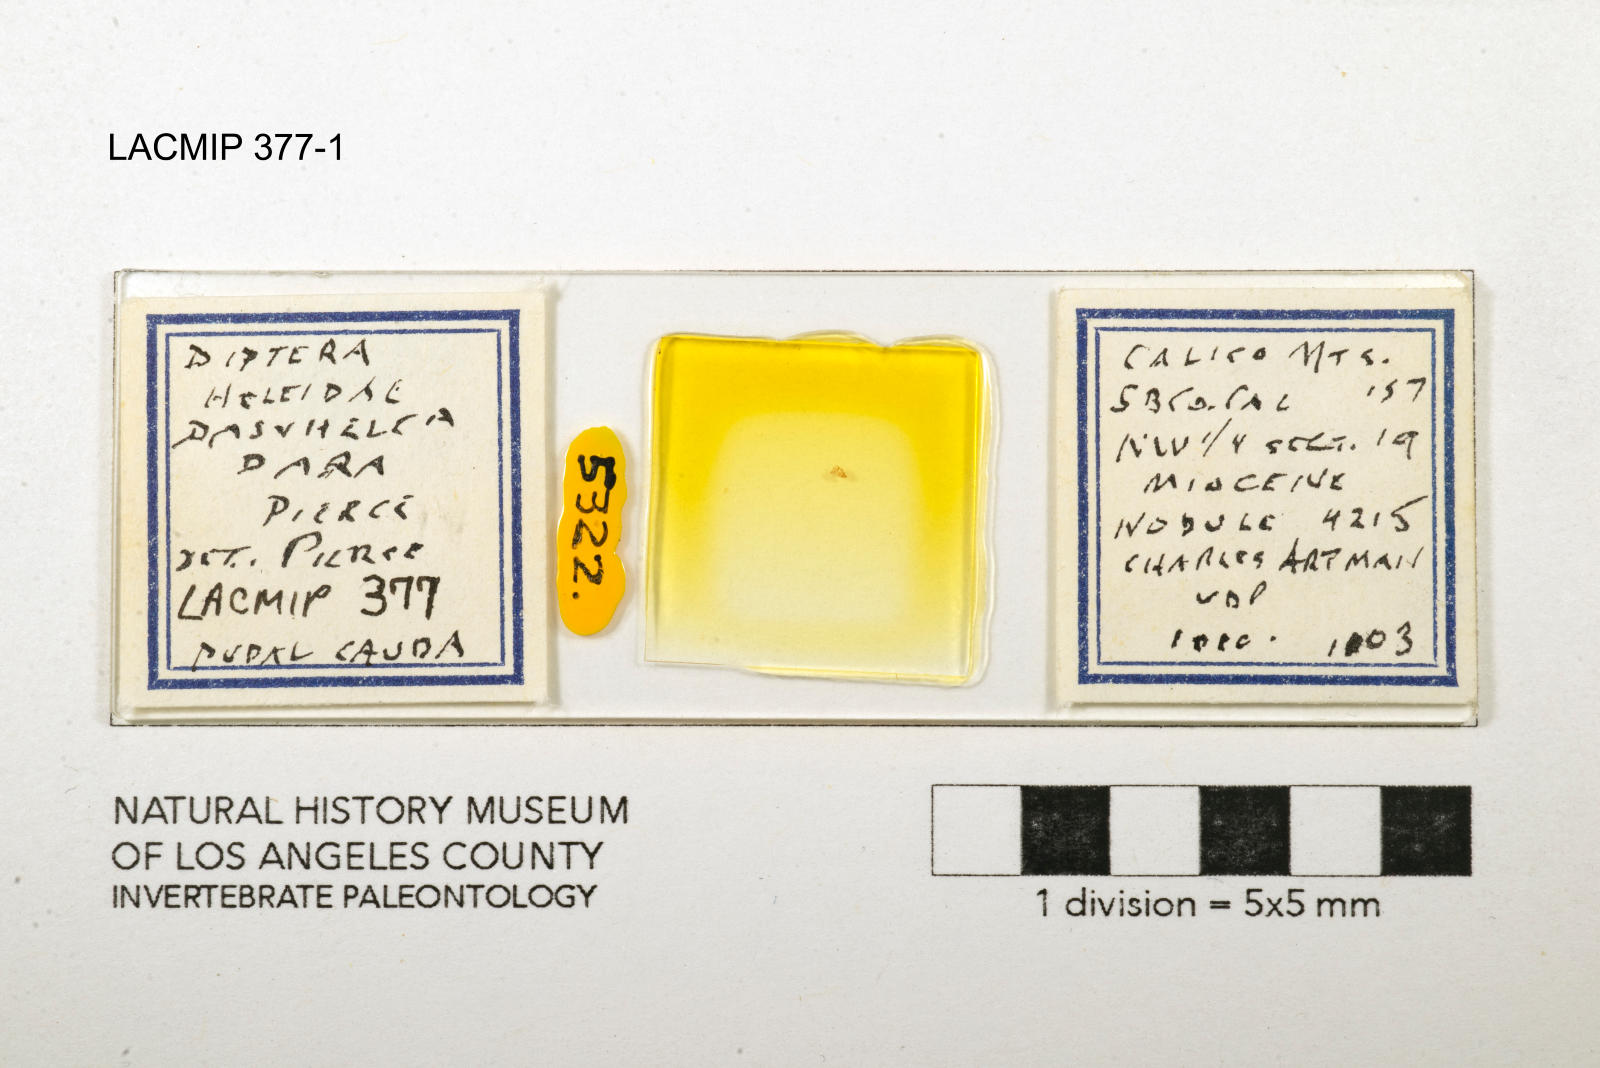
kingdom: Animalia
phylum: Arthropoda
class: Insecta
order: Diptera
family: Ceratopogonidae
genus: Dasyhelea
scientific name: Dasyhelea dara
